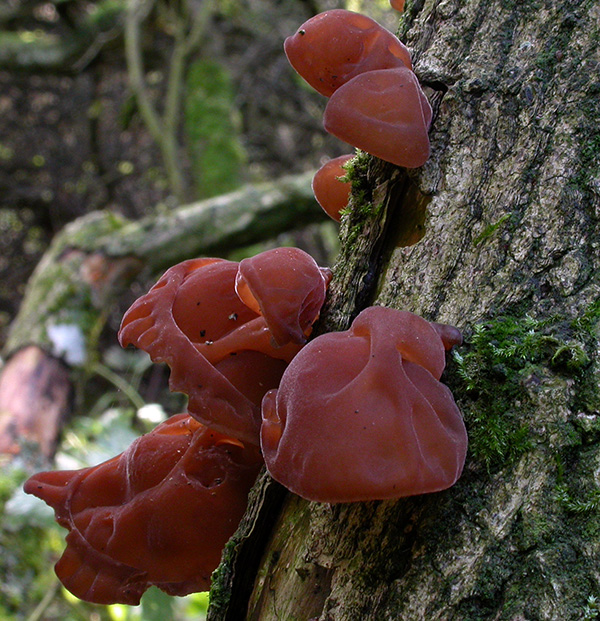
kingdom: Fungi
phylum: Basidiomycota
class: Agaricomycetes
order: Auriculariales
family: Auriculariaceae
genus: Auricularia
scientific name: Auricularia auricula-judae
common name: almindelig judasøre
